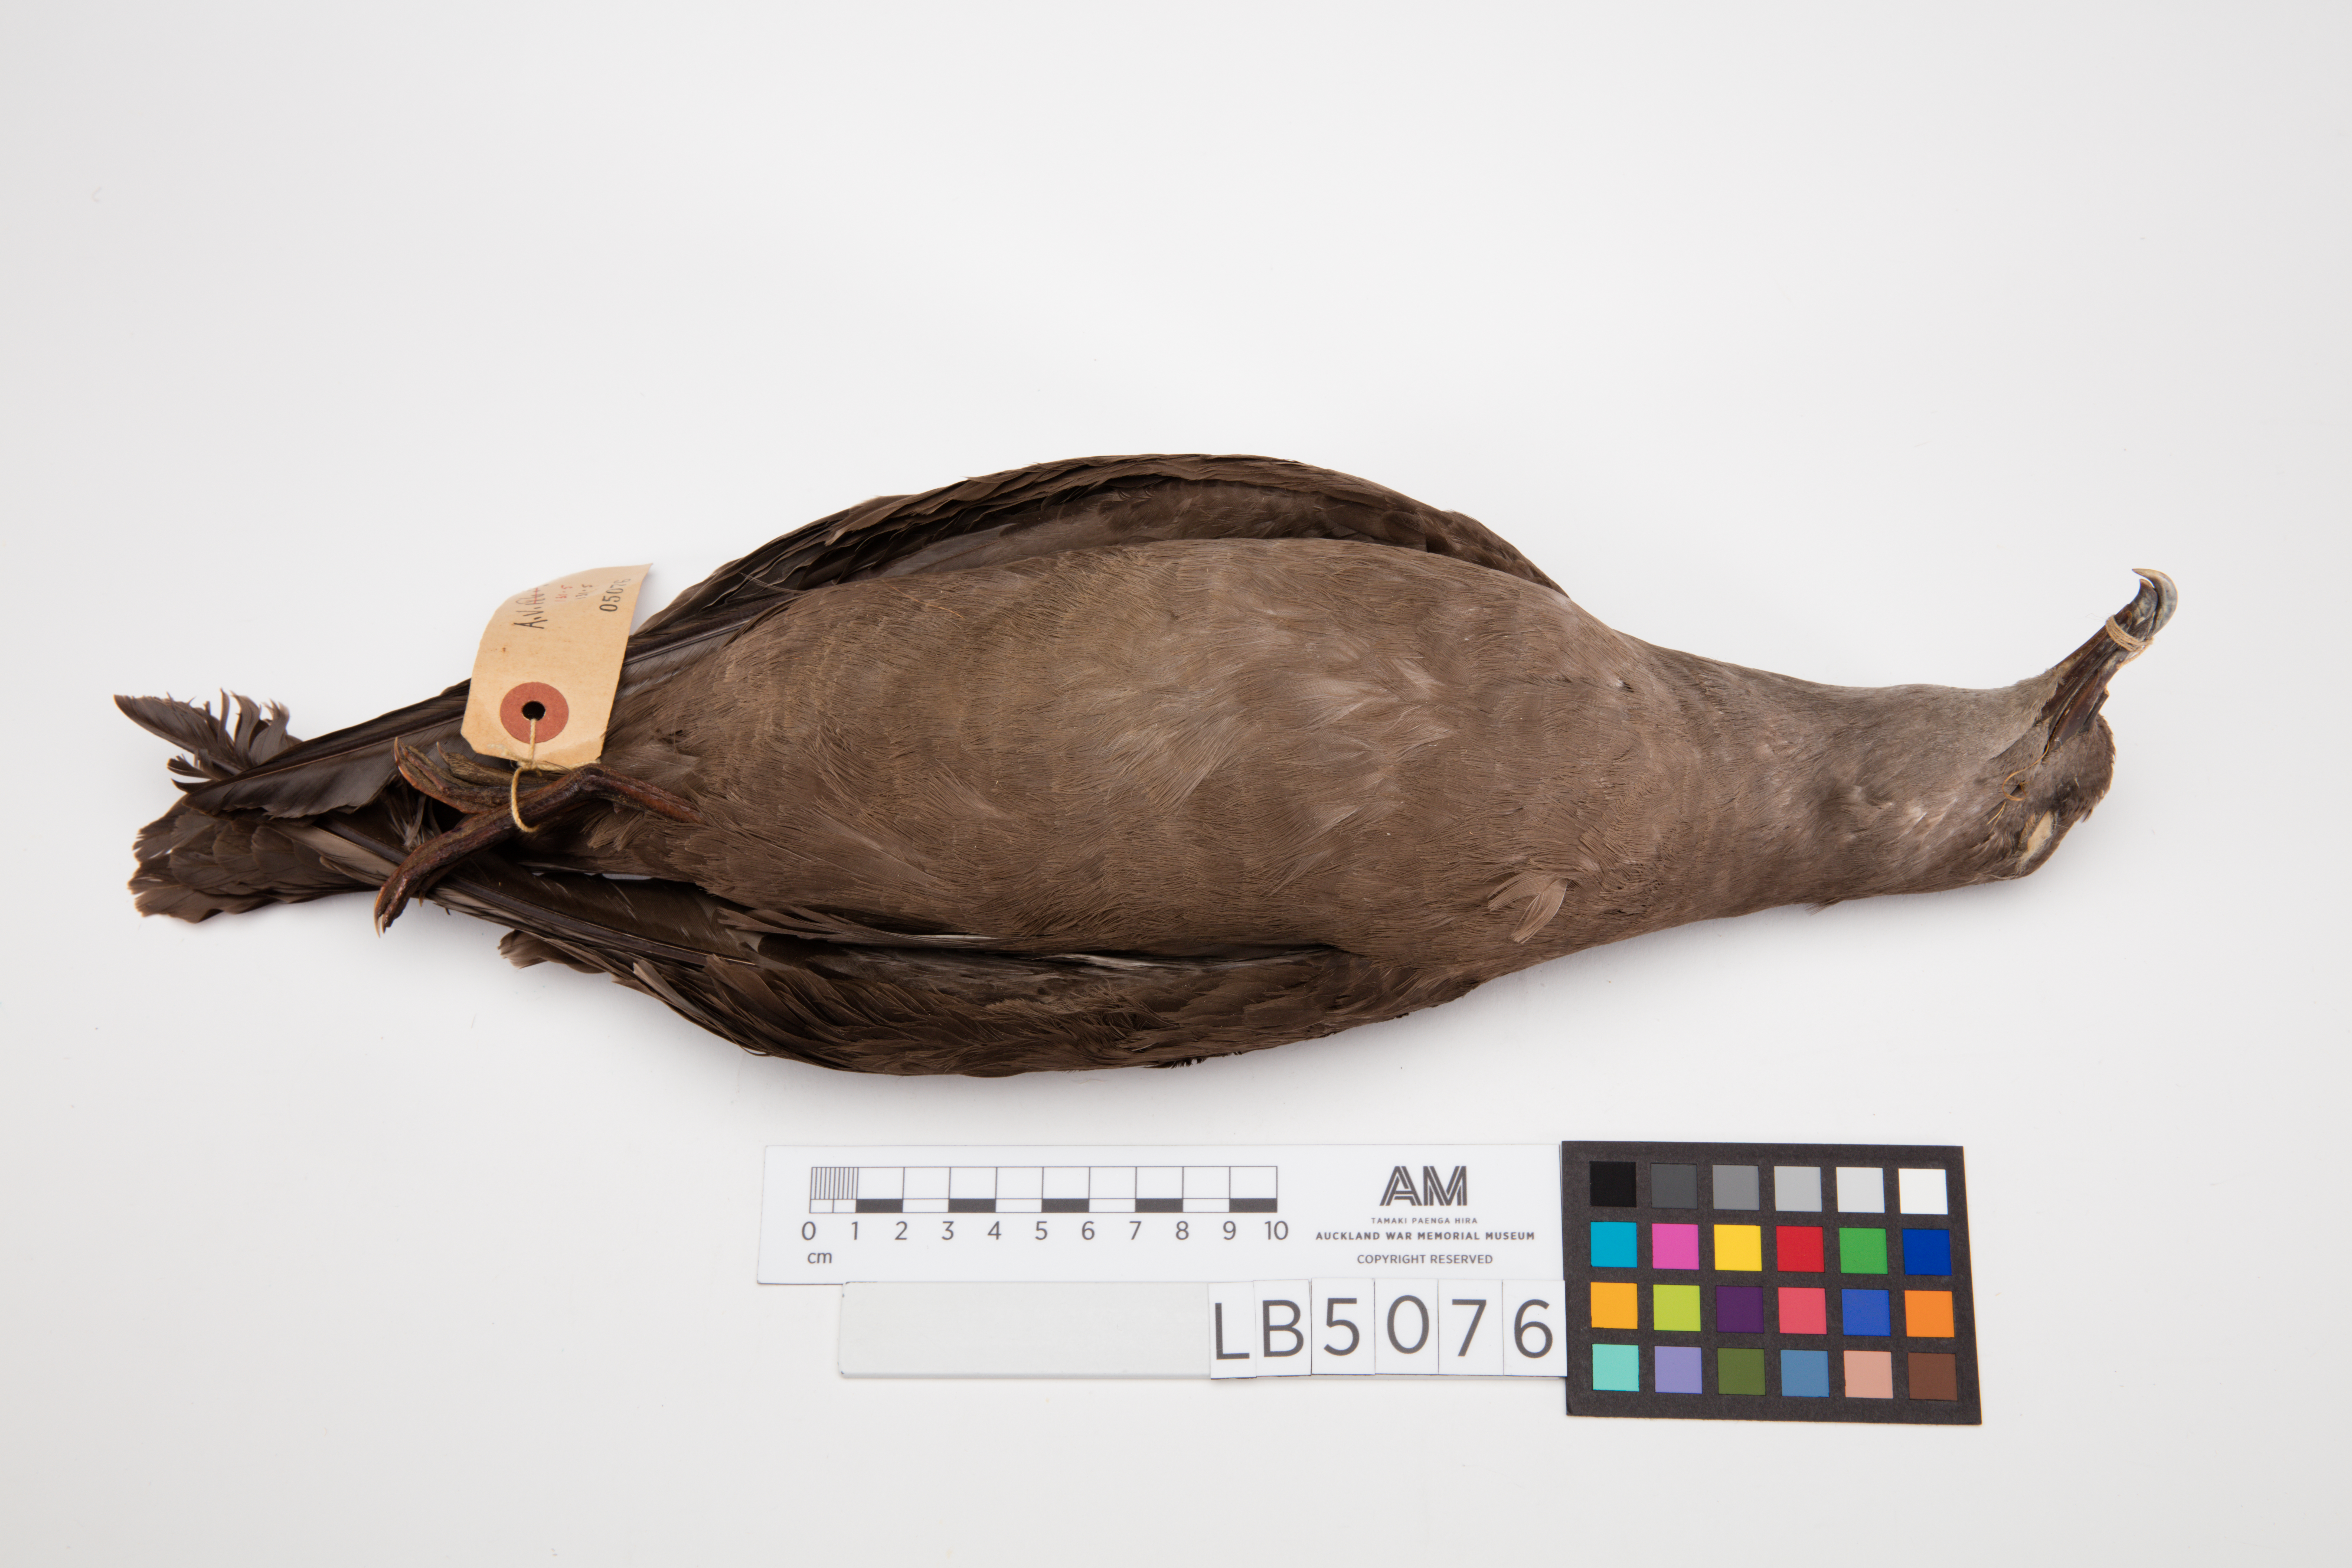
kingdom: Animalia
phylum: Chordata
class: Aves
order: Procellariiformes
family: Procellariidae
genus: Puffinus
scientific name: Puffinus pacificus
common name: Wedge-tailed shearwater
